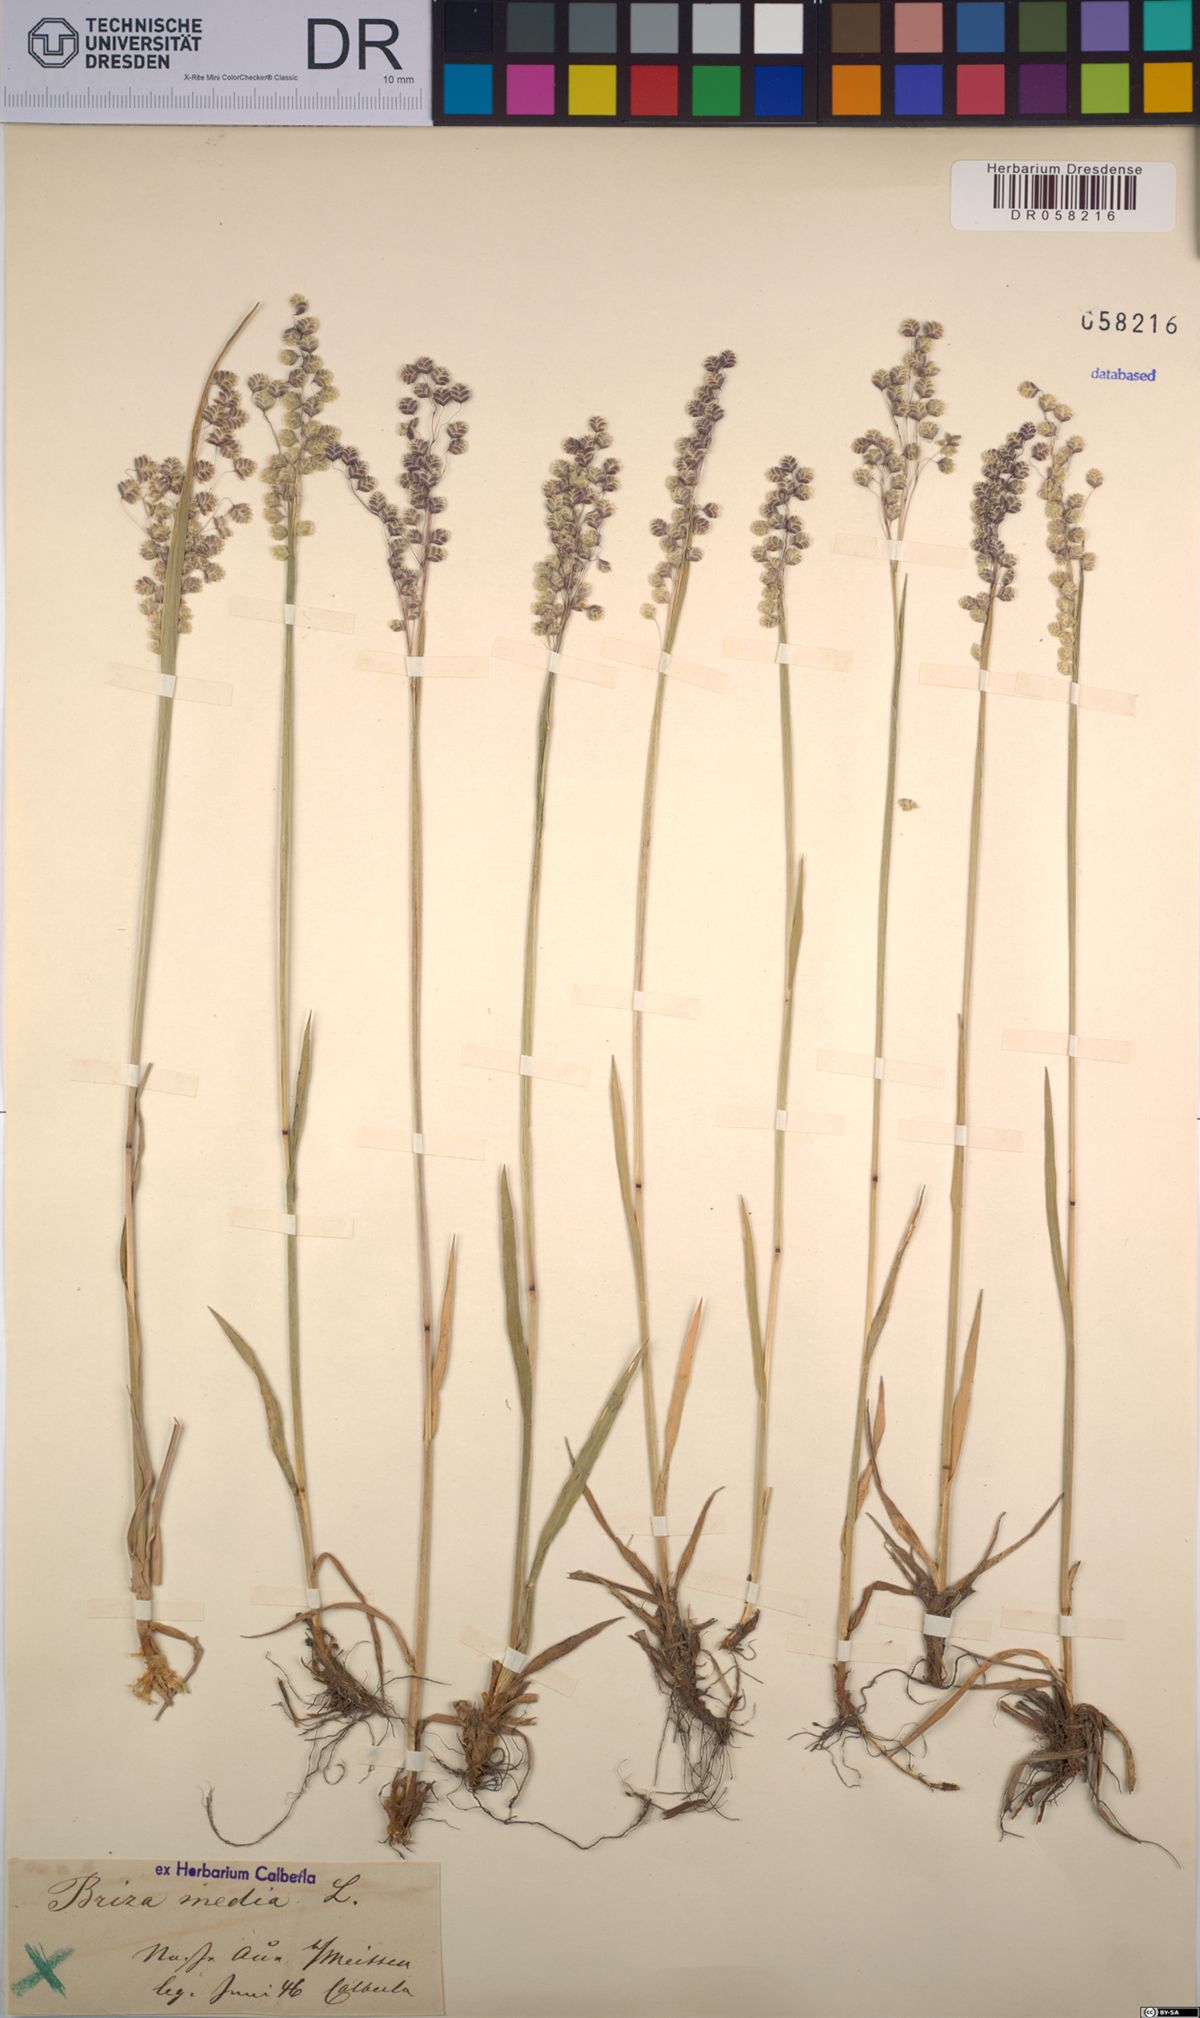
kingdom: Plantae
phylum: Tracheophyta
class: Liliopsida
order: Poales
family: Poaceae
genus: Briza
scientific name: Briza media
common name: Quaking grass
